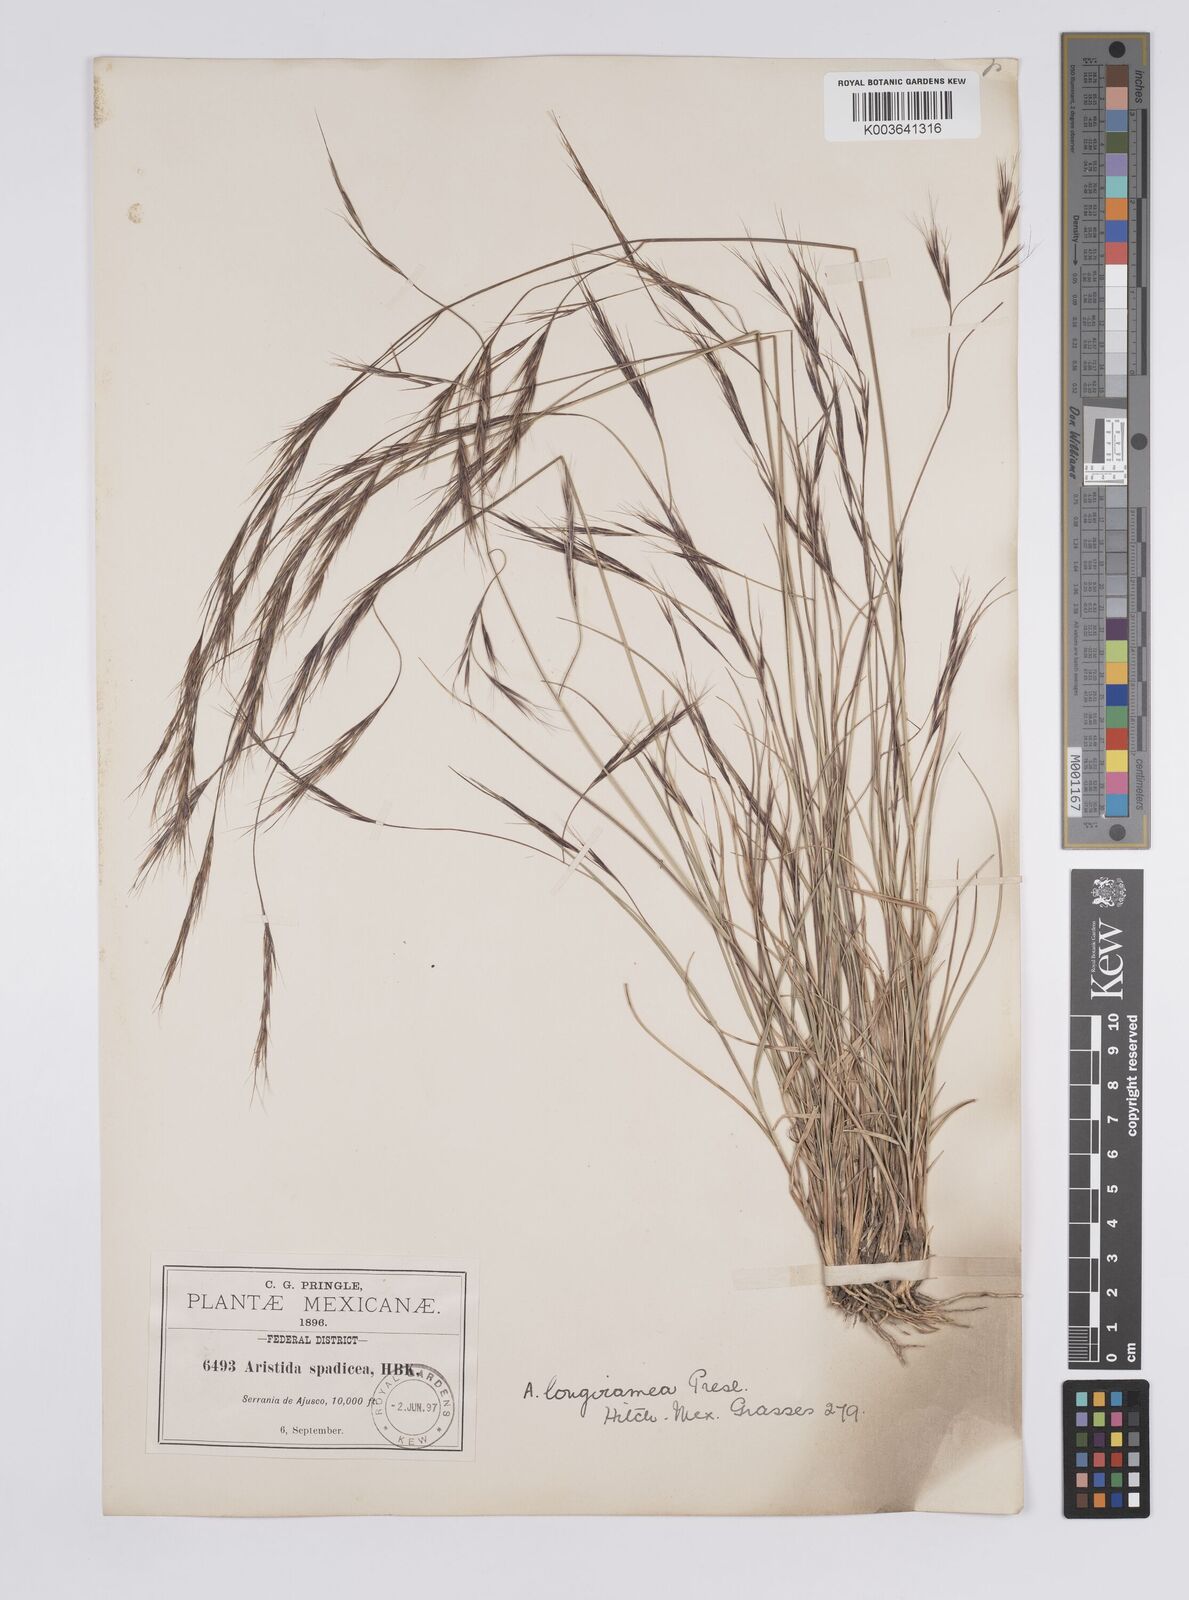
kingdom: Plantae
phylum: Tracheophyta
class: Liliopsida
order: Poales
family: Poaceae
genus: Aristida
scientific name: Aristida laxa
